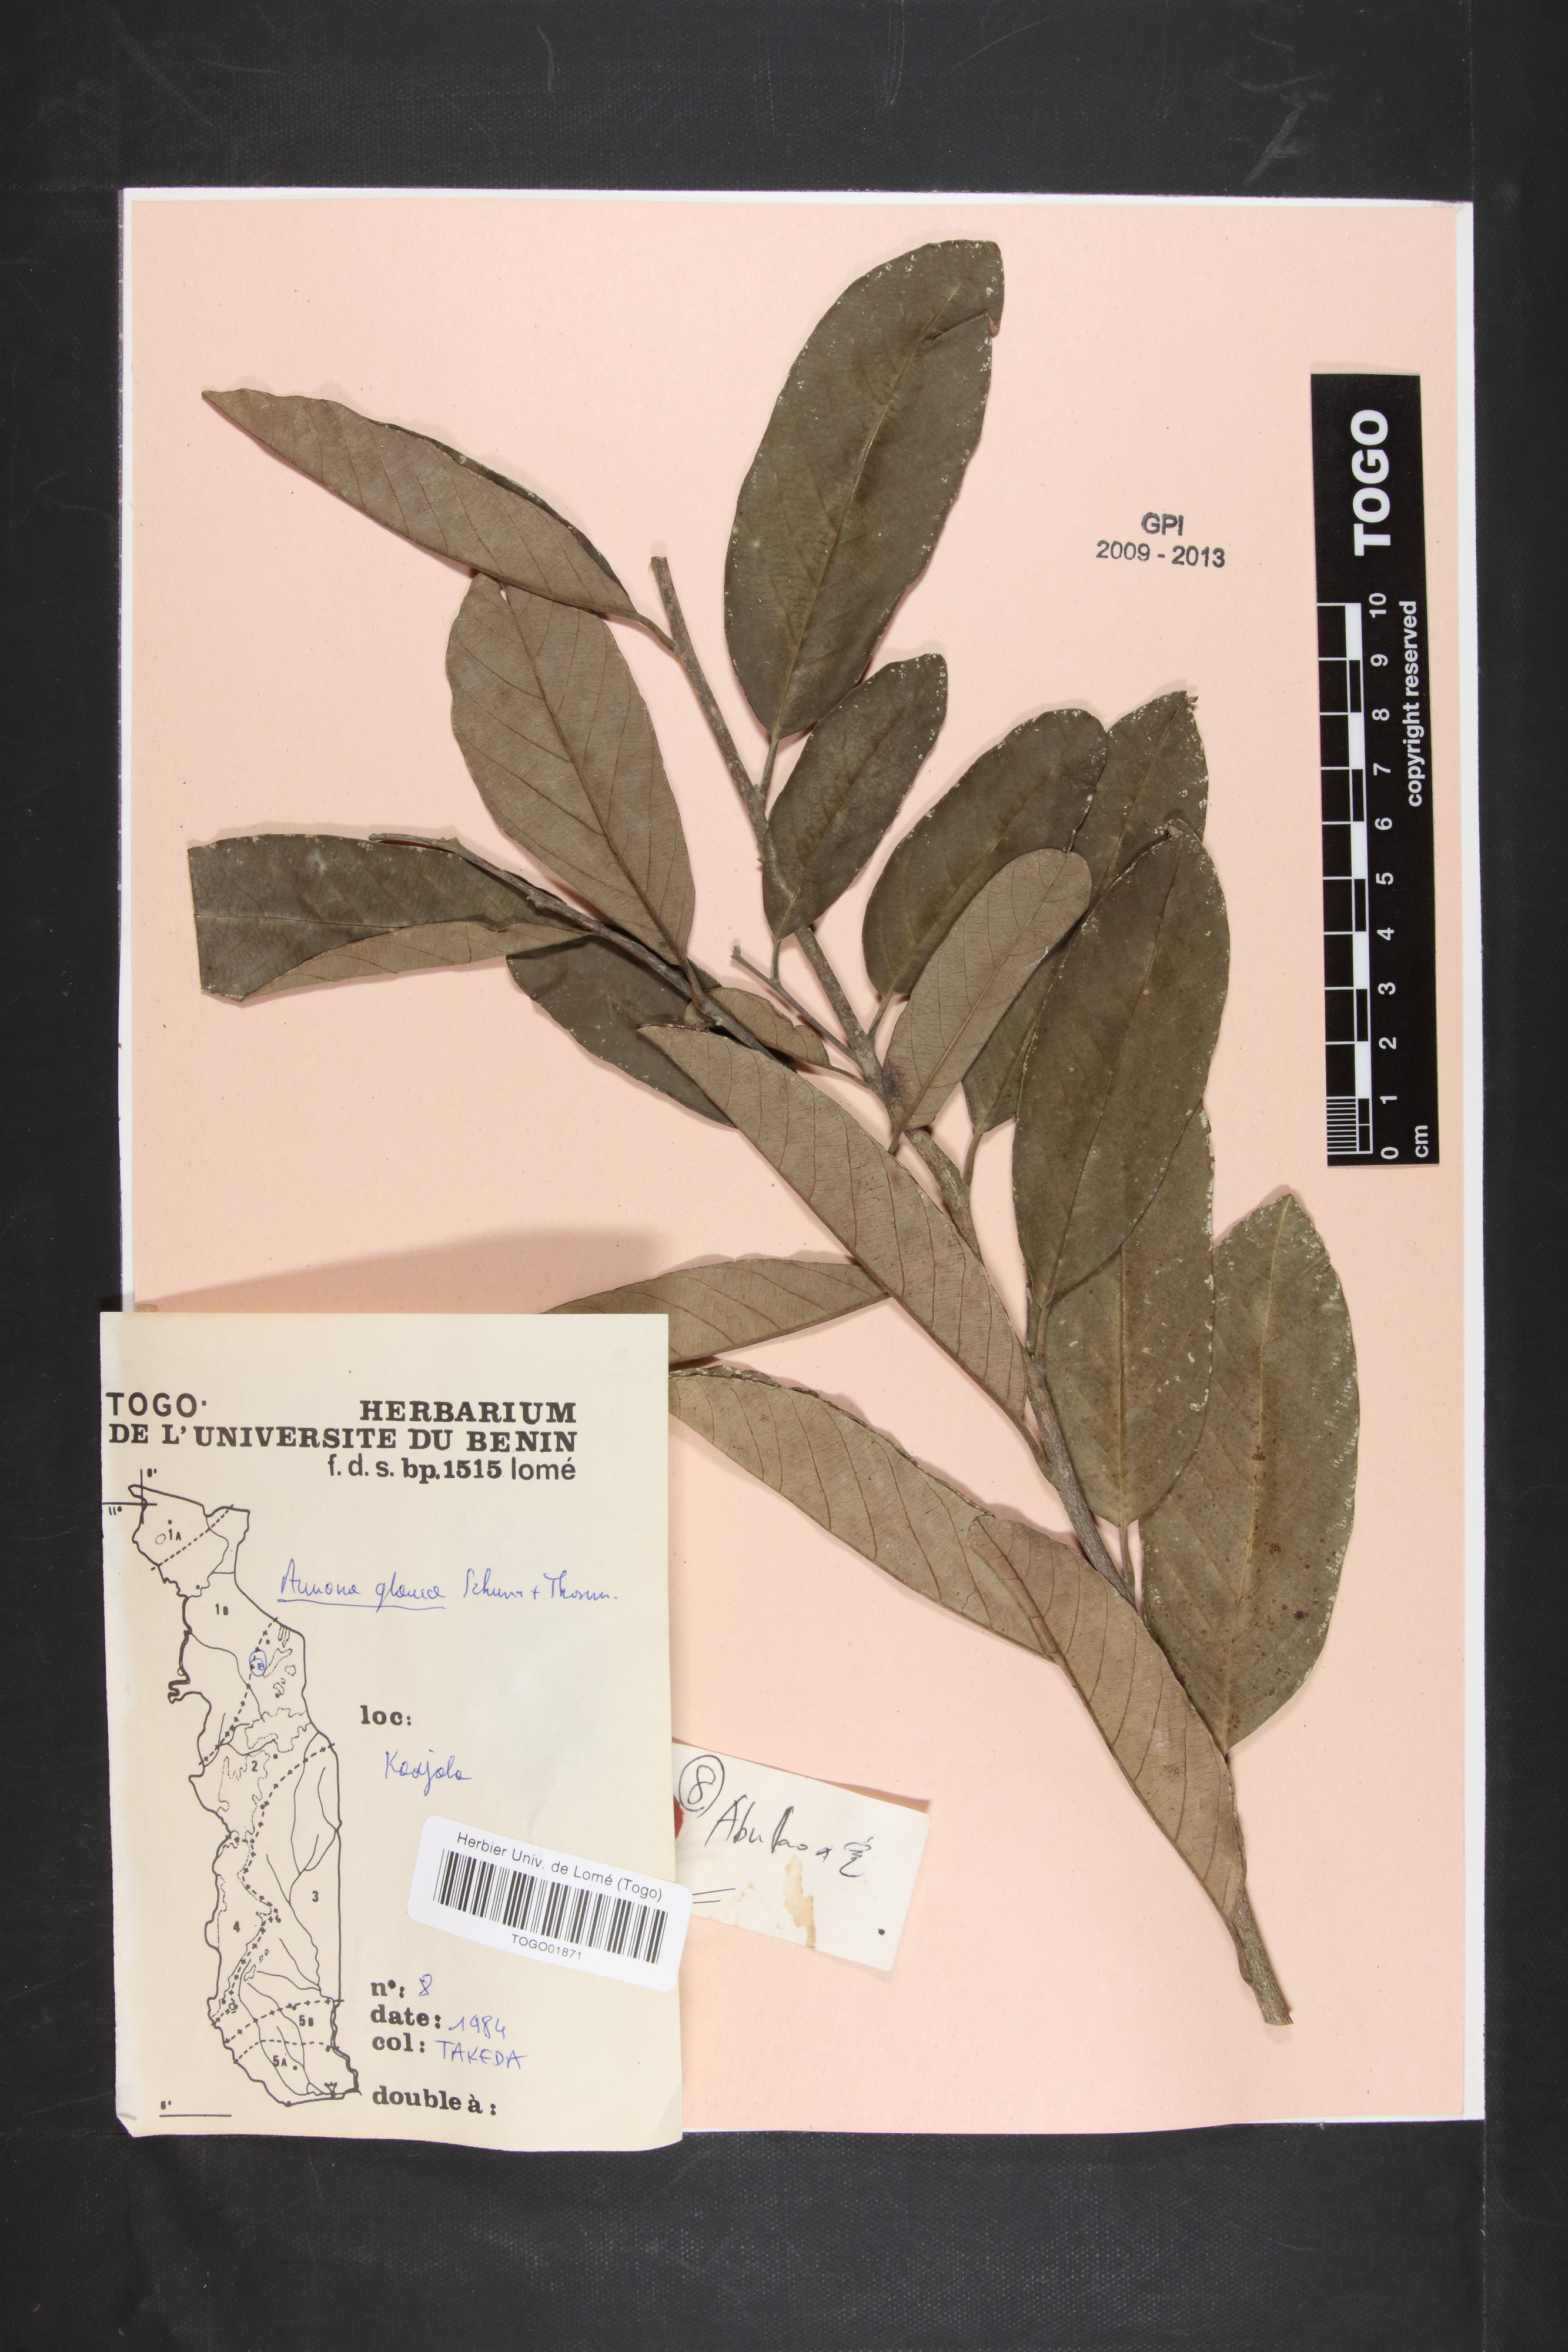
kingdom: Plantae
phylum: Tracheophyta
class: Magnoliopsida
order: Magnoliales
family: Annonaceae
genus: Annona
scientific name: Annona glauca
